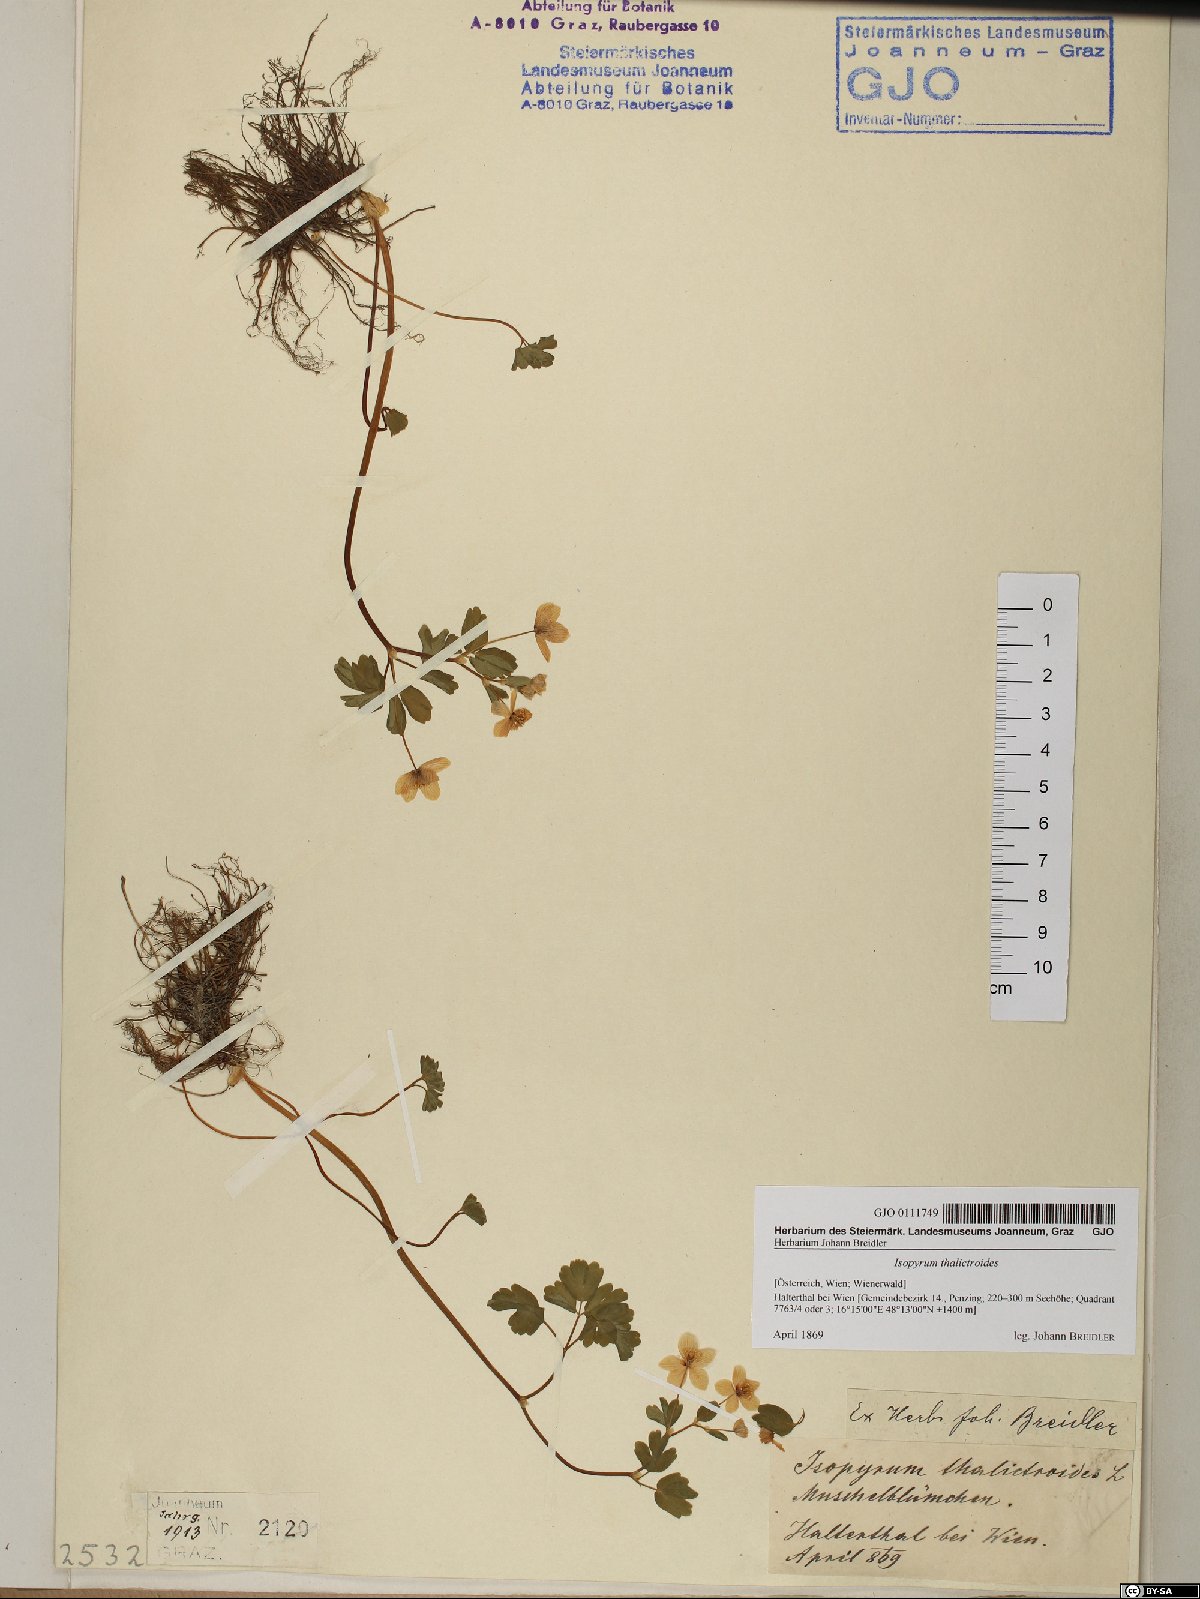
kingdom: Plantae
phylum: Tracheophyta
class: Magnoliopsida
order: Ranunculales
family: Ranunculaceae
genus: Isopyrum
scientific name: Isopyrum thalictroides
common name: Isopyrum
